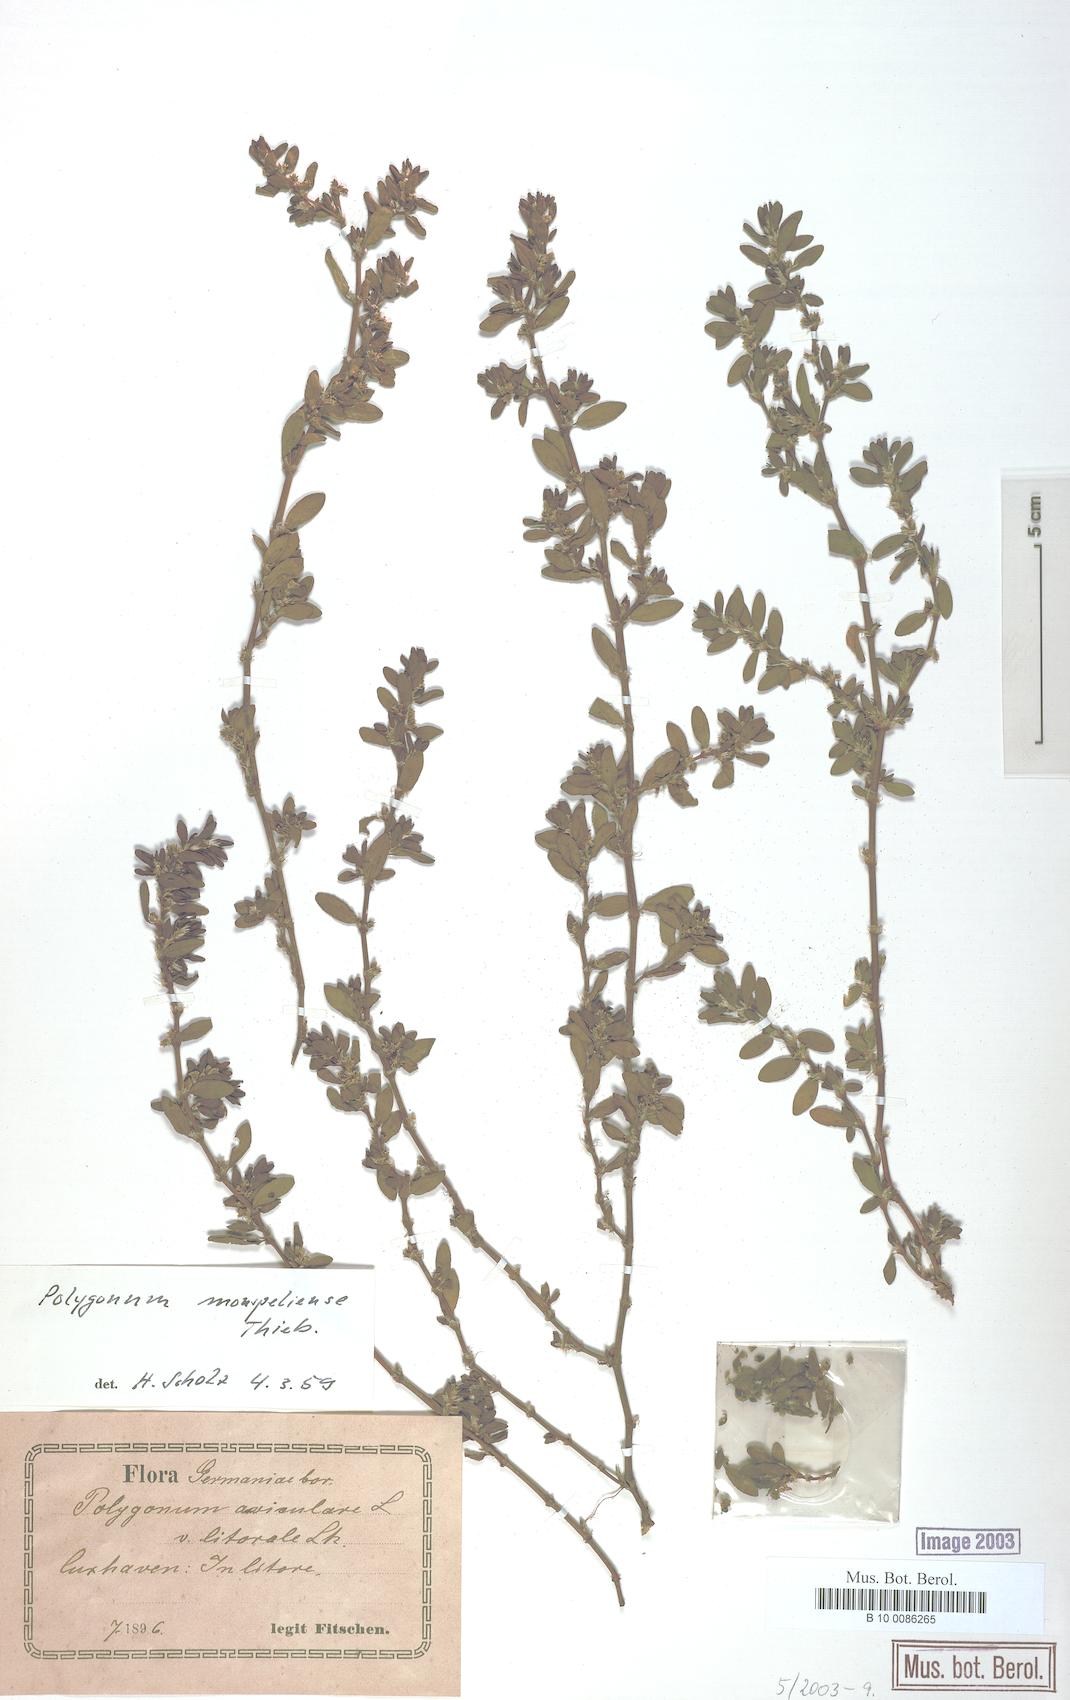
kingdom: Plantae
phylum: Tracheophyta
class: Magnoliopsida
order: Caryophyllales
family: Polygonaceae
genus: Polygonum
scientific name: Polygonum
